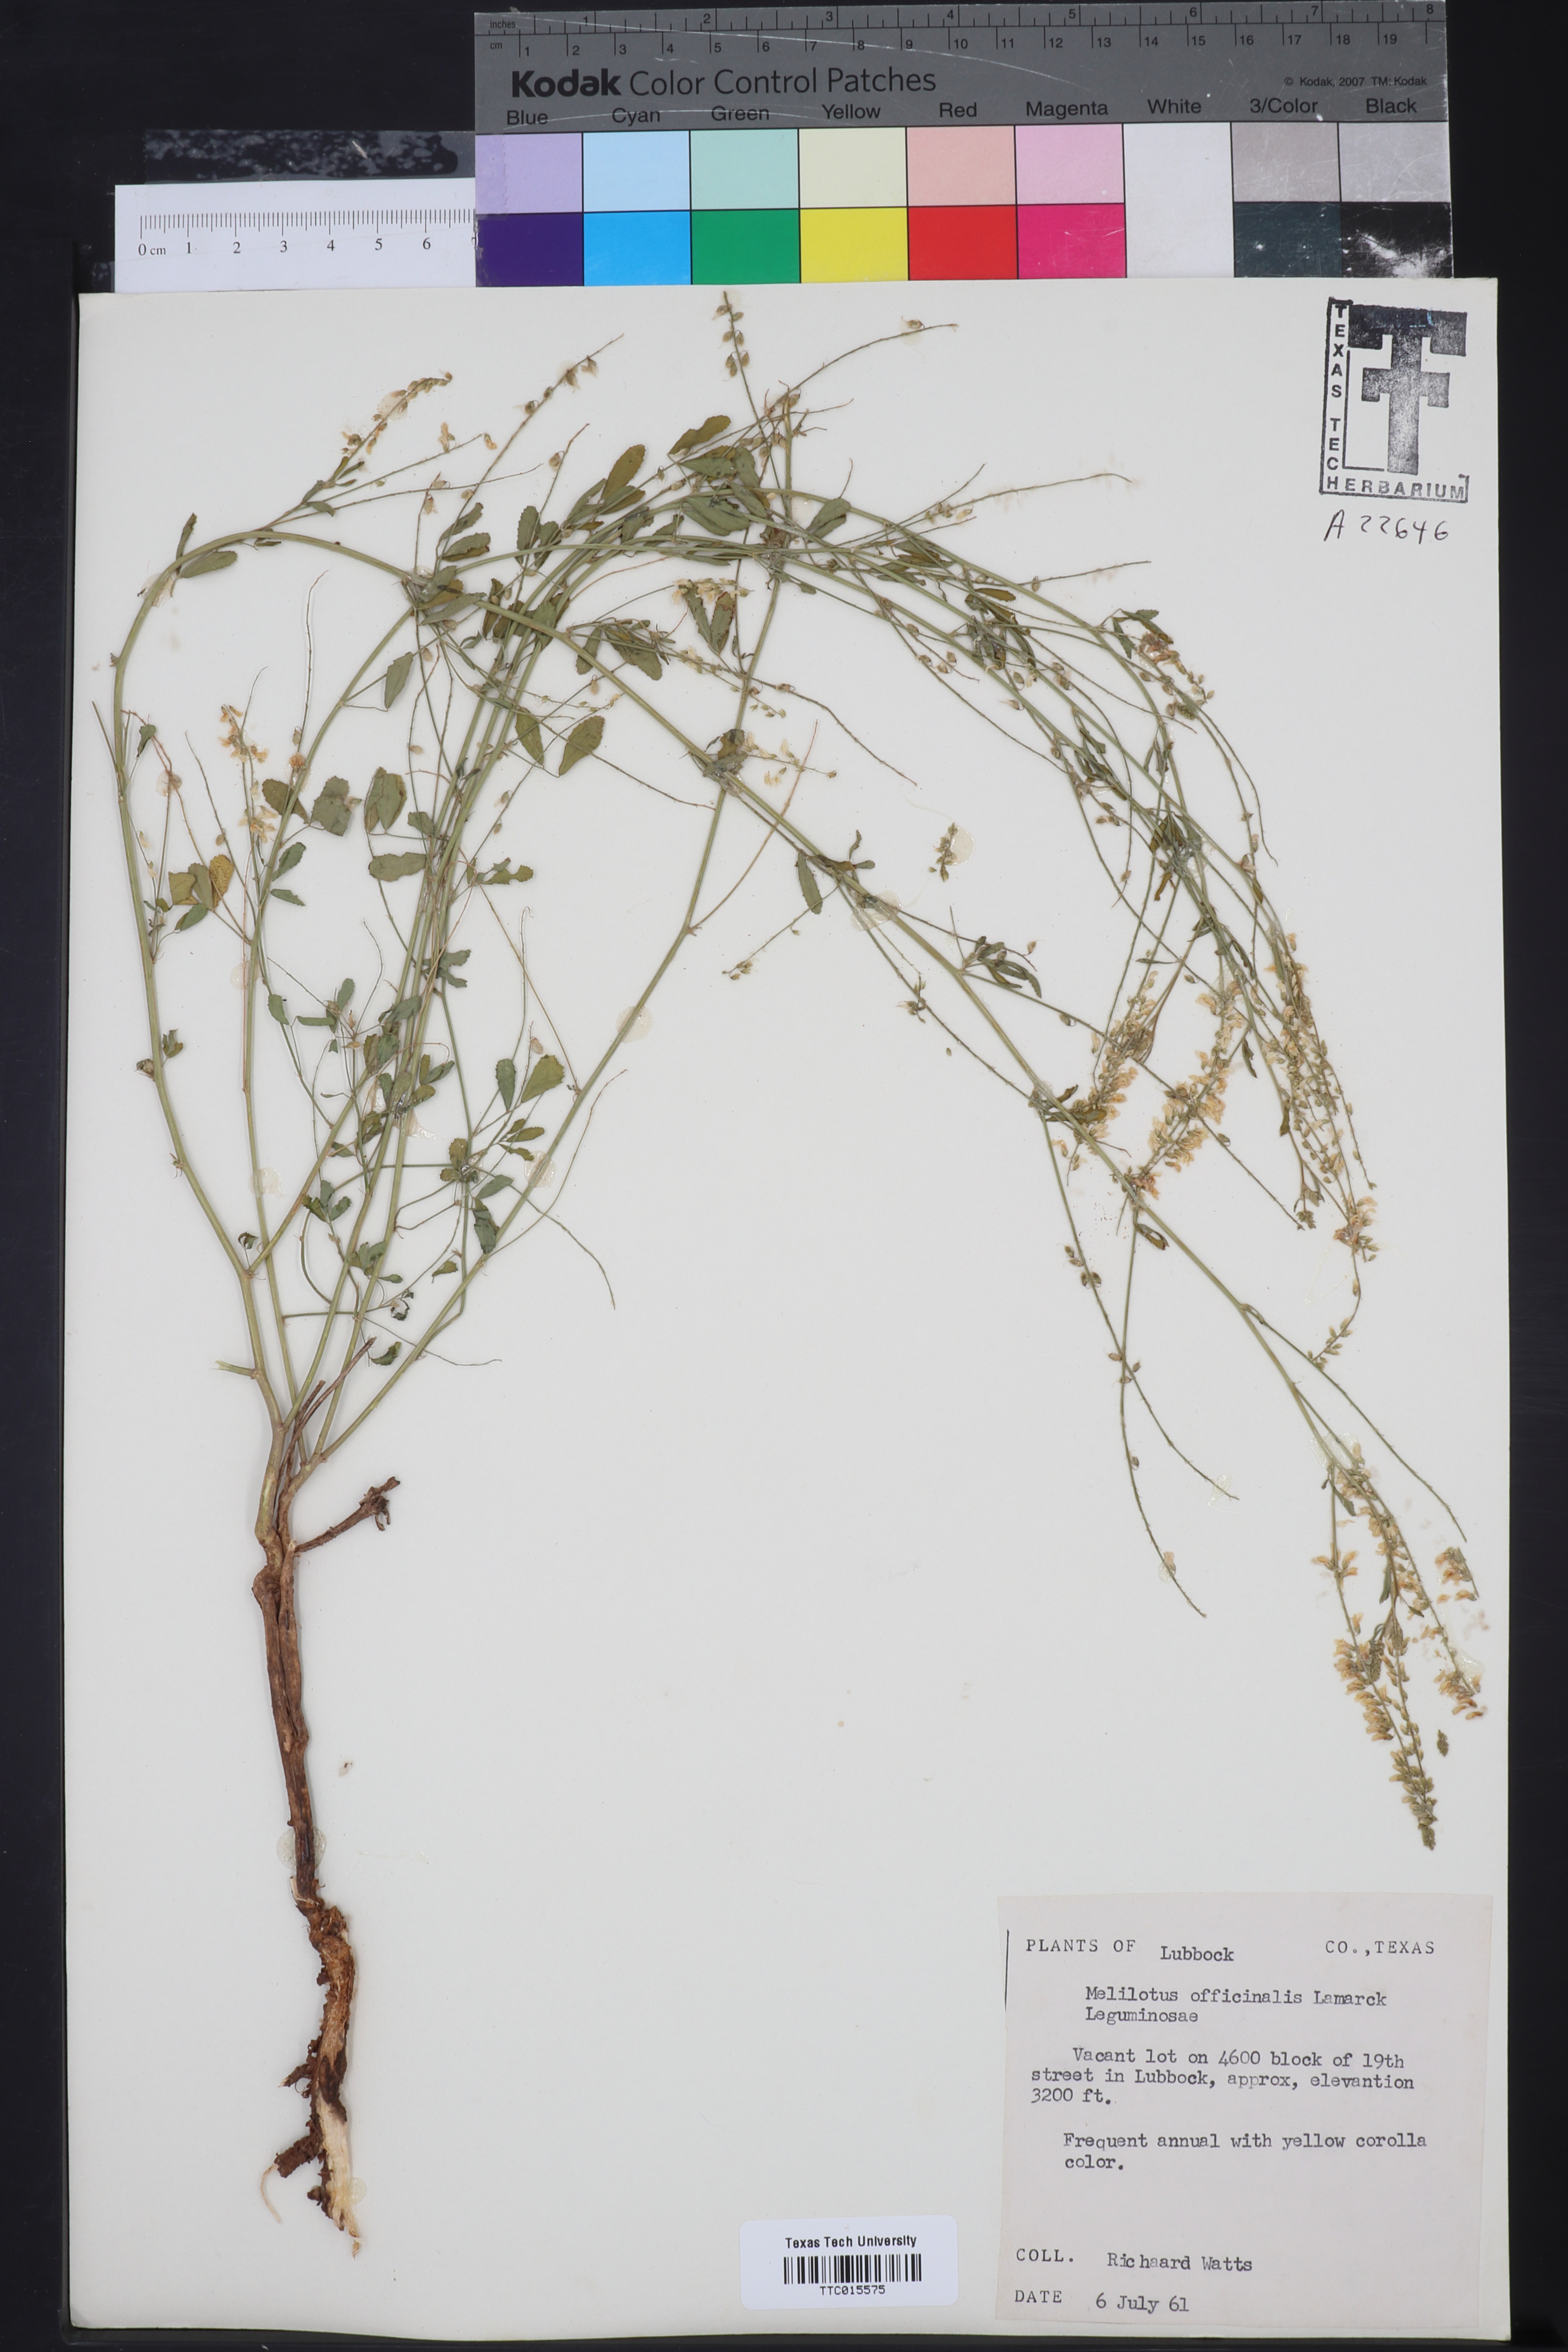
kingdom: Plantae
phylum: Tracheophyta
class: Magnoliopsida
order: Fabales
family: Fabaceae
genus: Melilotus
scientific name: Melilotus officinalis
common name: Sweetclover
